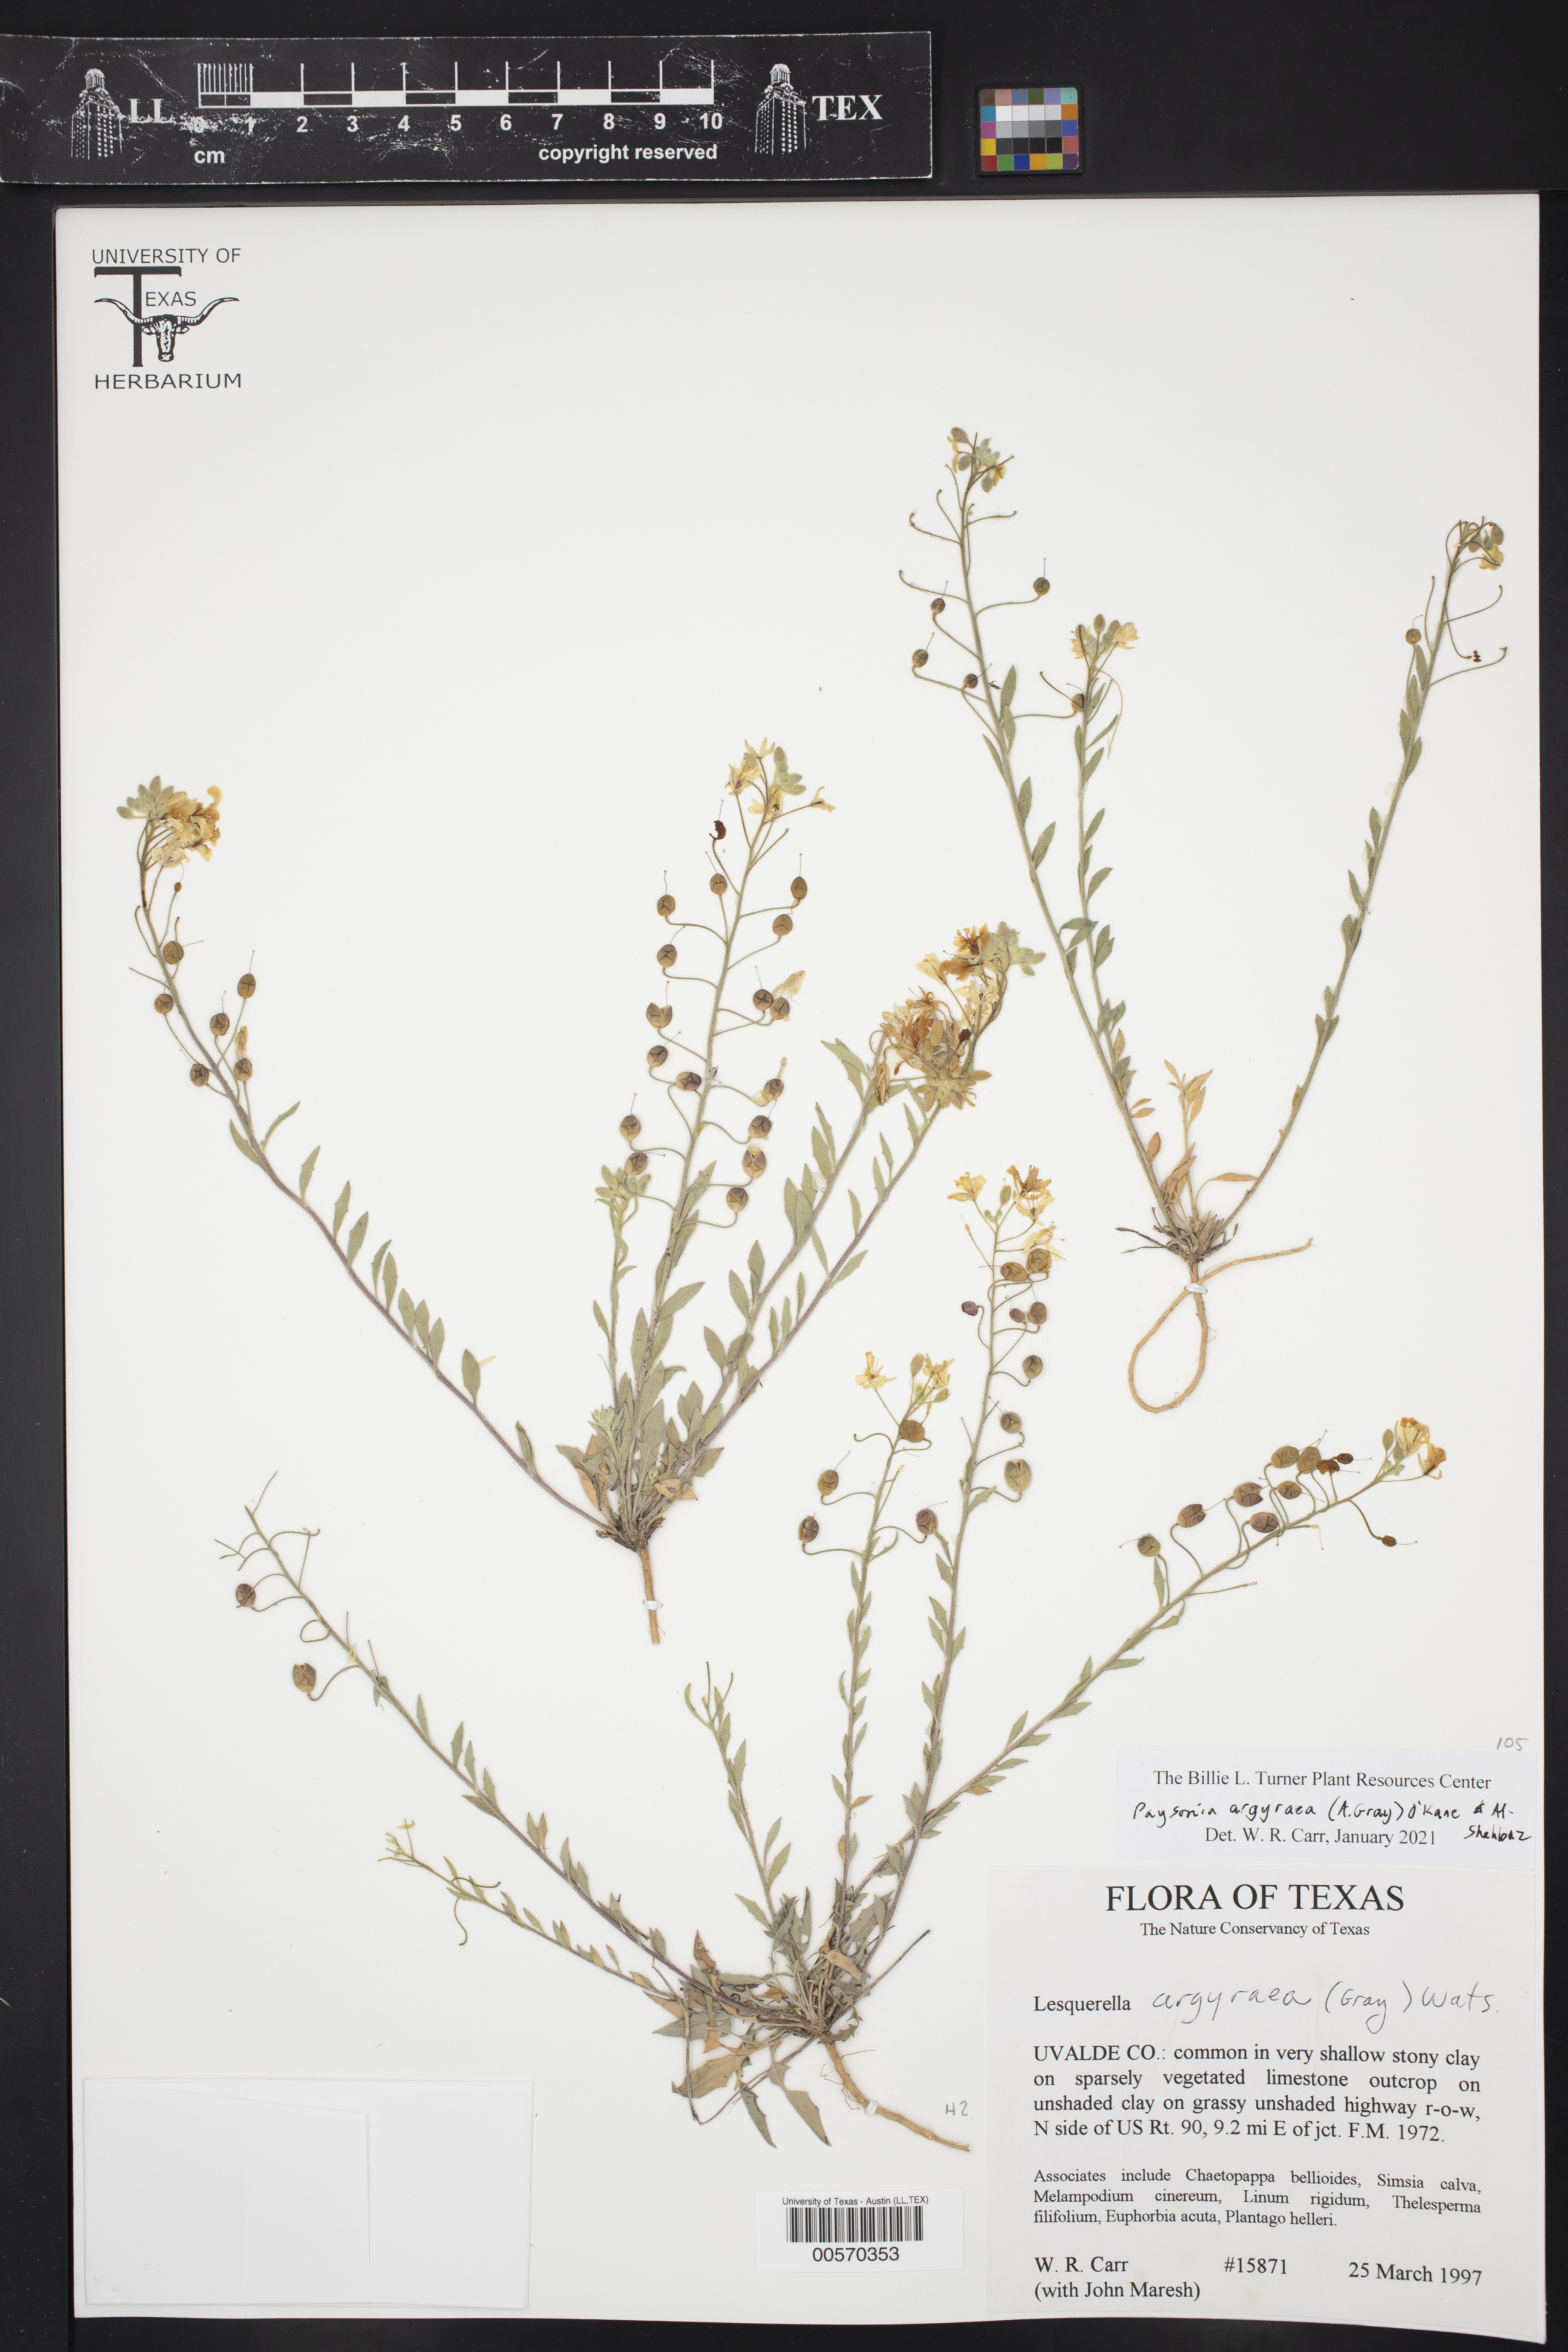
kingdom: Plantae
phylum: Tracheophyta
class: Magnoliopsida
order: Brassicales
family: Brassicaceae
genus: Physaria
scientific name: Physaria argyraea
